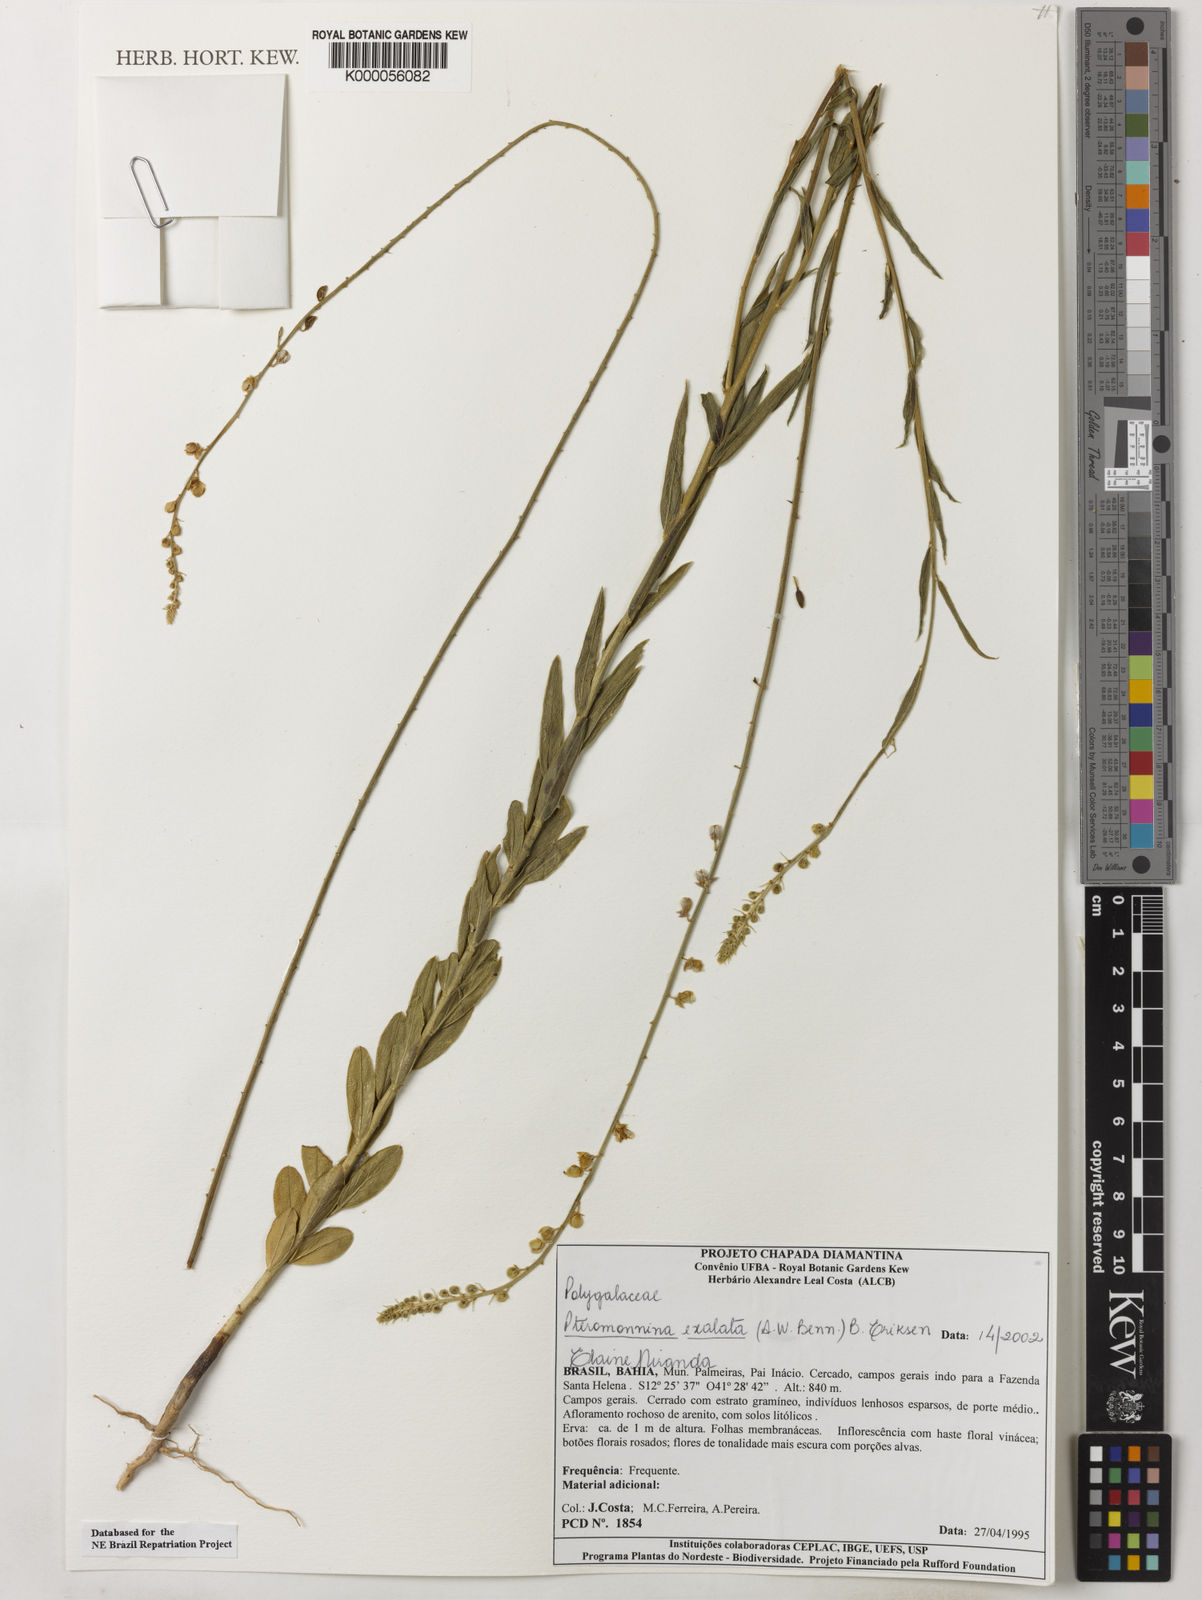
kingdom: Plantae
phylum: Tracheophyta
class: Magnoliopsida
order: Fabales
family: Polygalaceae
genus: Monnina
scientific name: Monnina exalata
